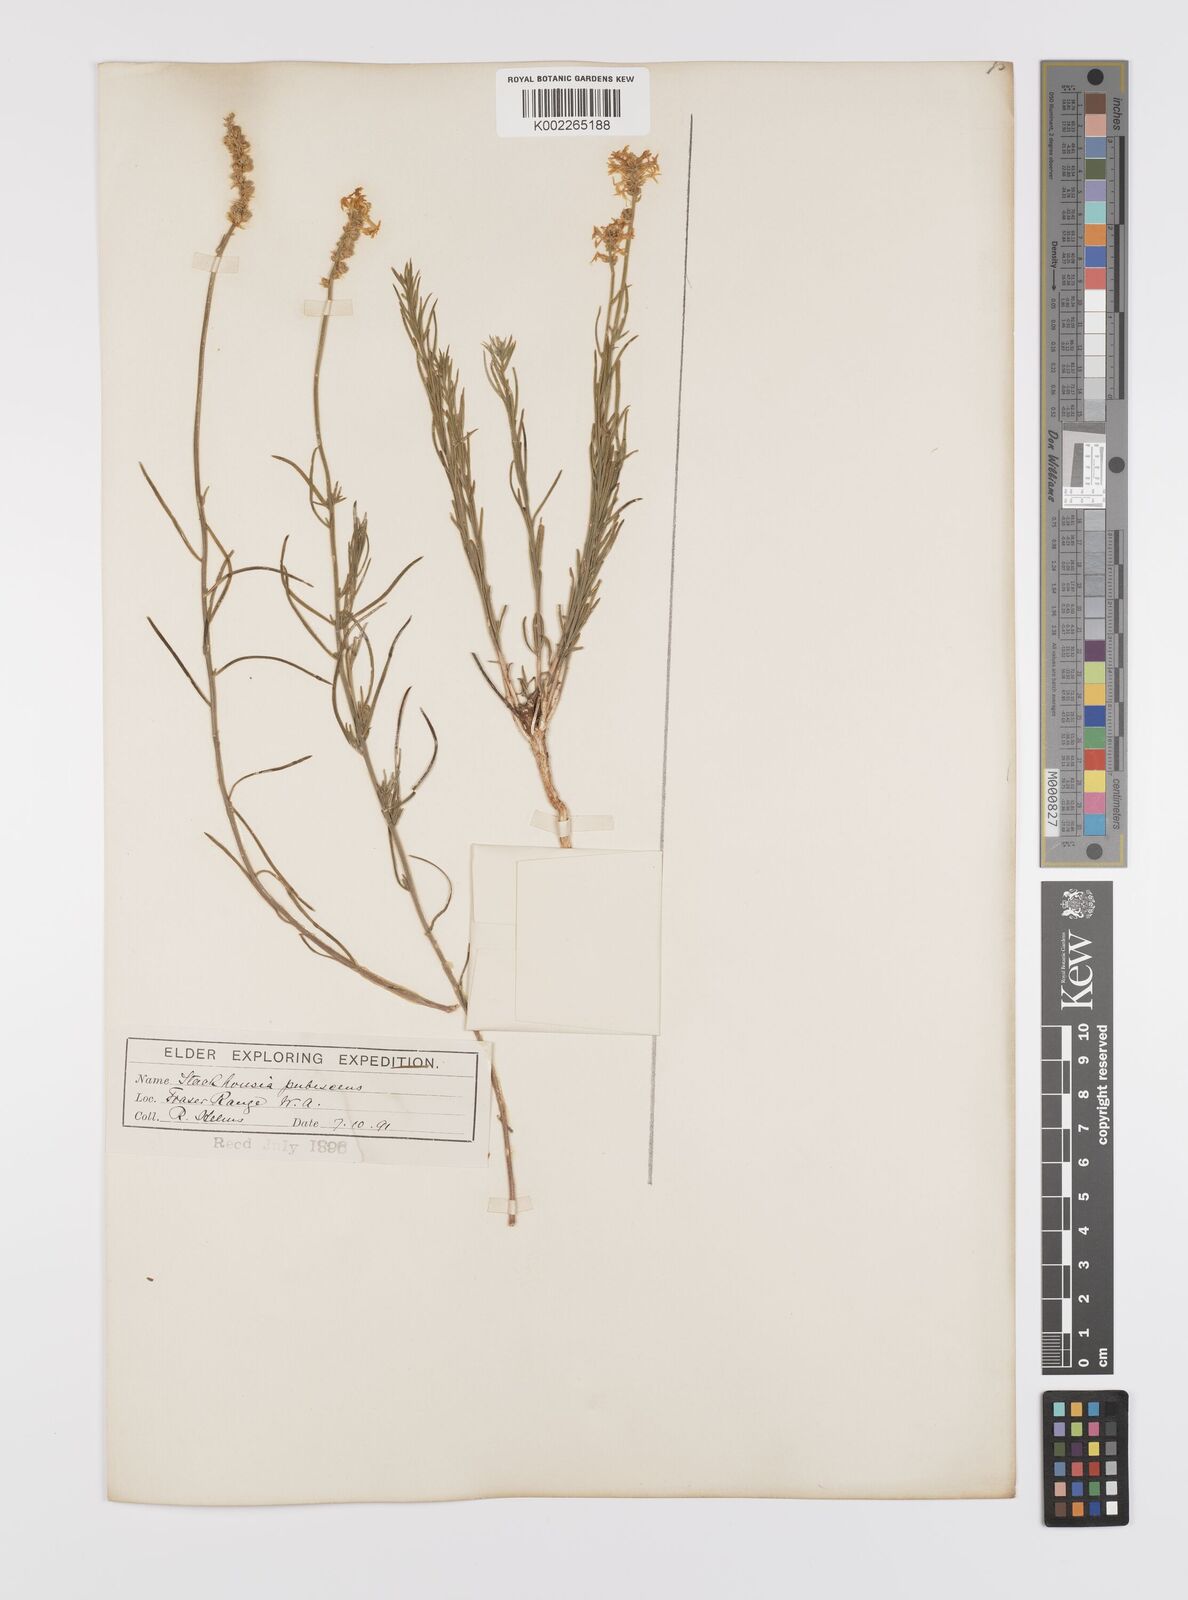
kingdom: Plantae
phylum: Tracheophyta
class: Magnoliopsida
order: Celastrales
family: Celastraceae
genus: Stackhousia
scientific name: Stackhousia monogyna
